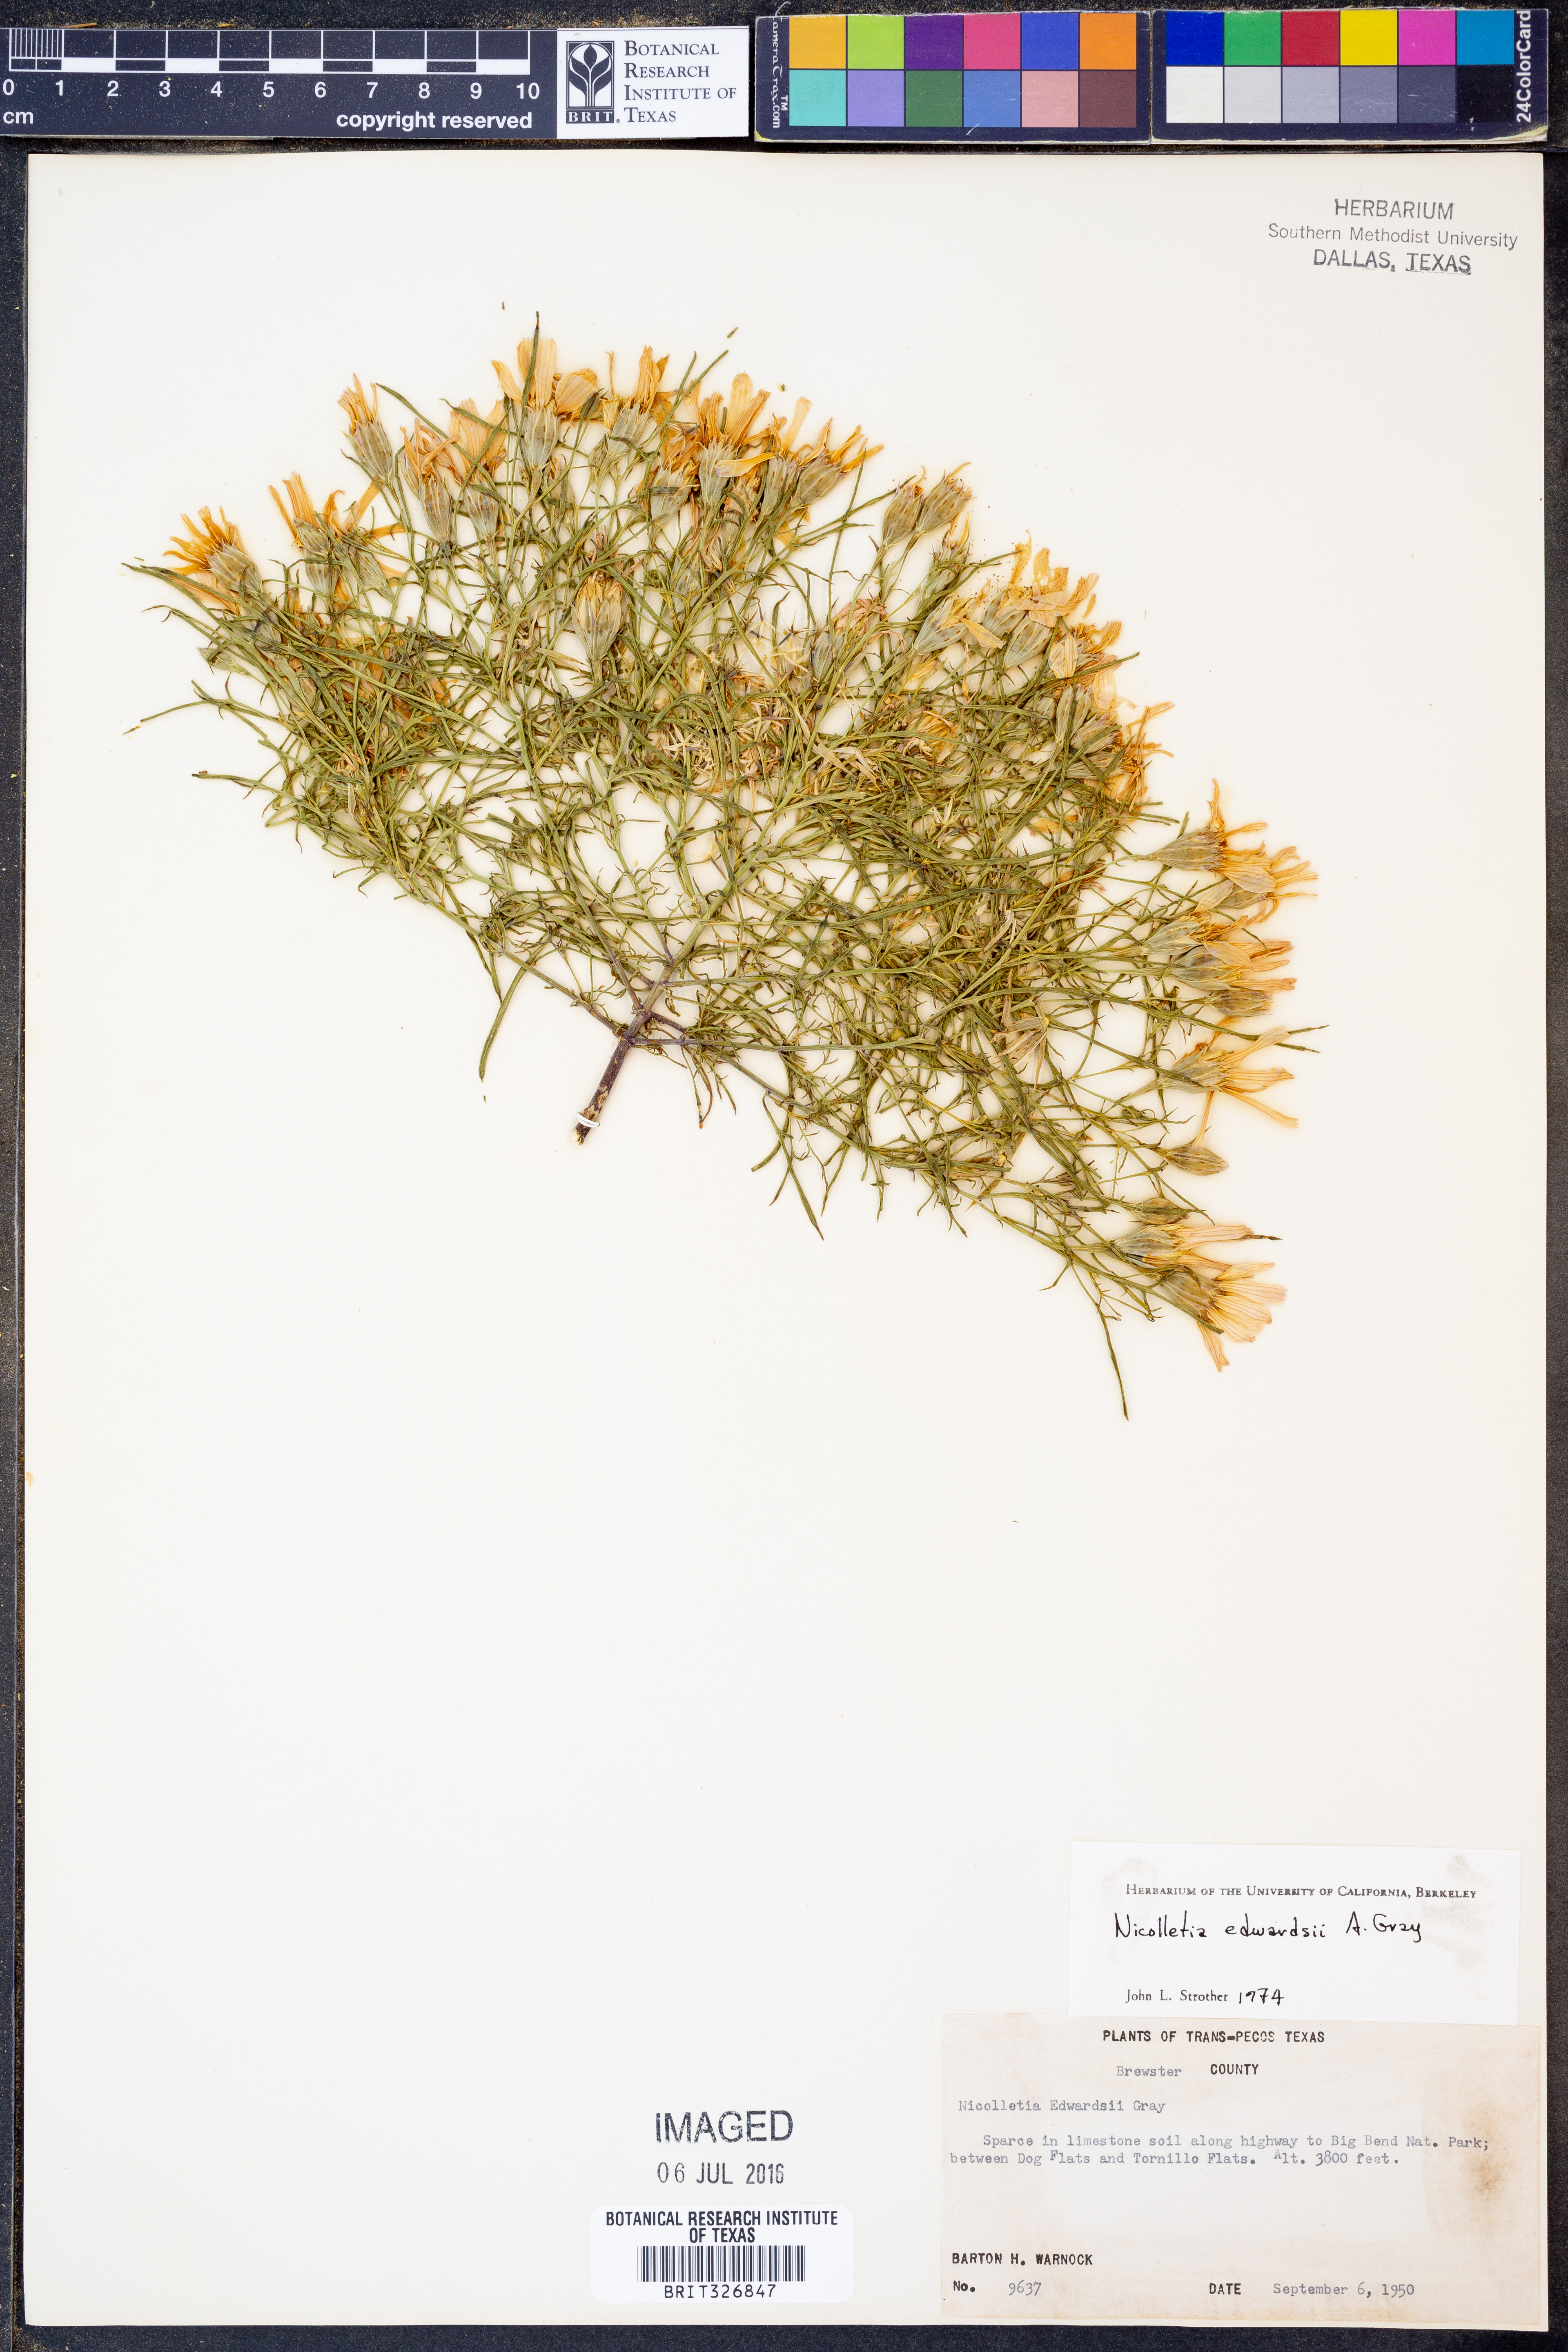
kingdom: Plantae
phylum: Tracheophyta
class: Magnoliopsida
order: Asterales
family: Asteraceae
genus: Nicolletia
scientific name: Nicolletia edwardsii
